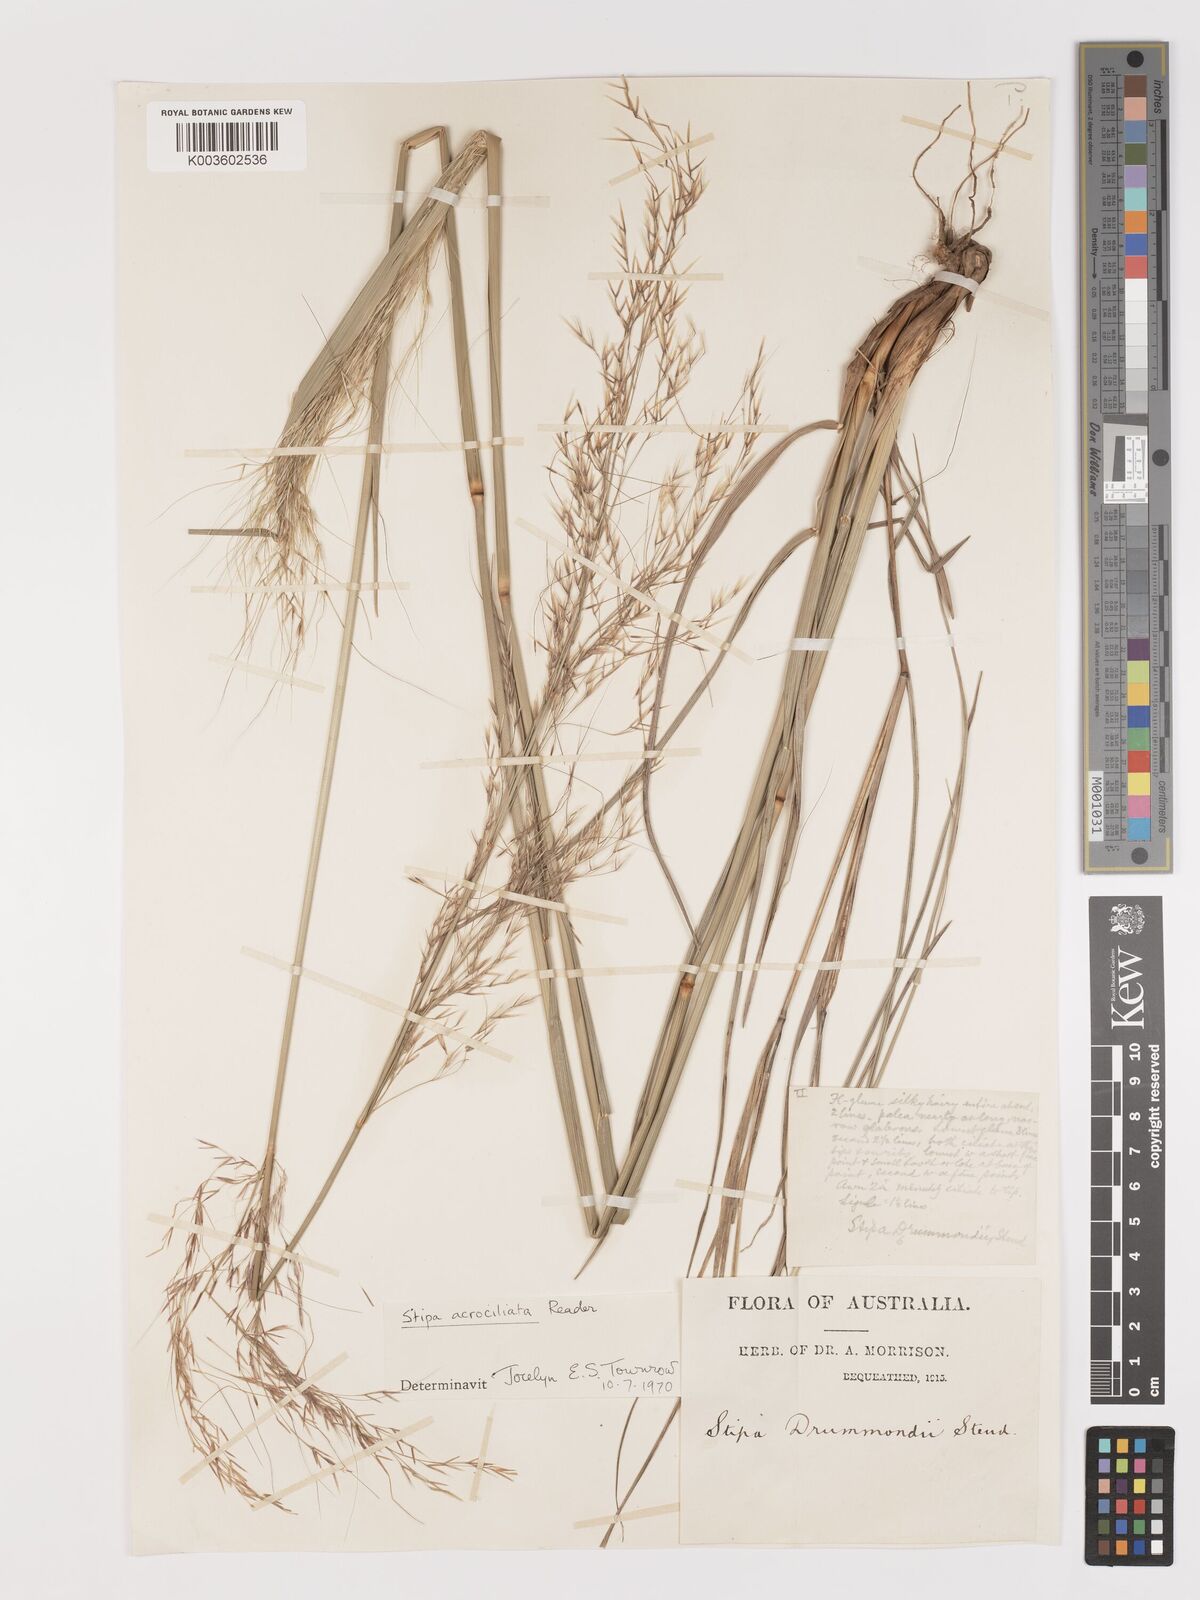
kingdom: Plantae
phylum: Tracheophyta
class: Liliopsida
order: Poales
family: Poaceae
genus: Austrostipa
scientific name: Austrostipa acrociliata
